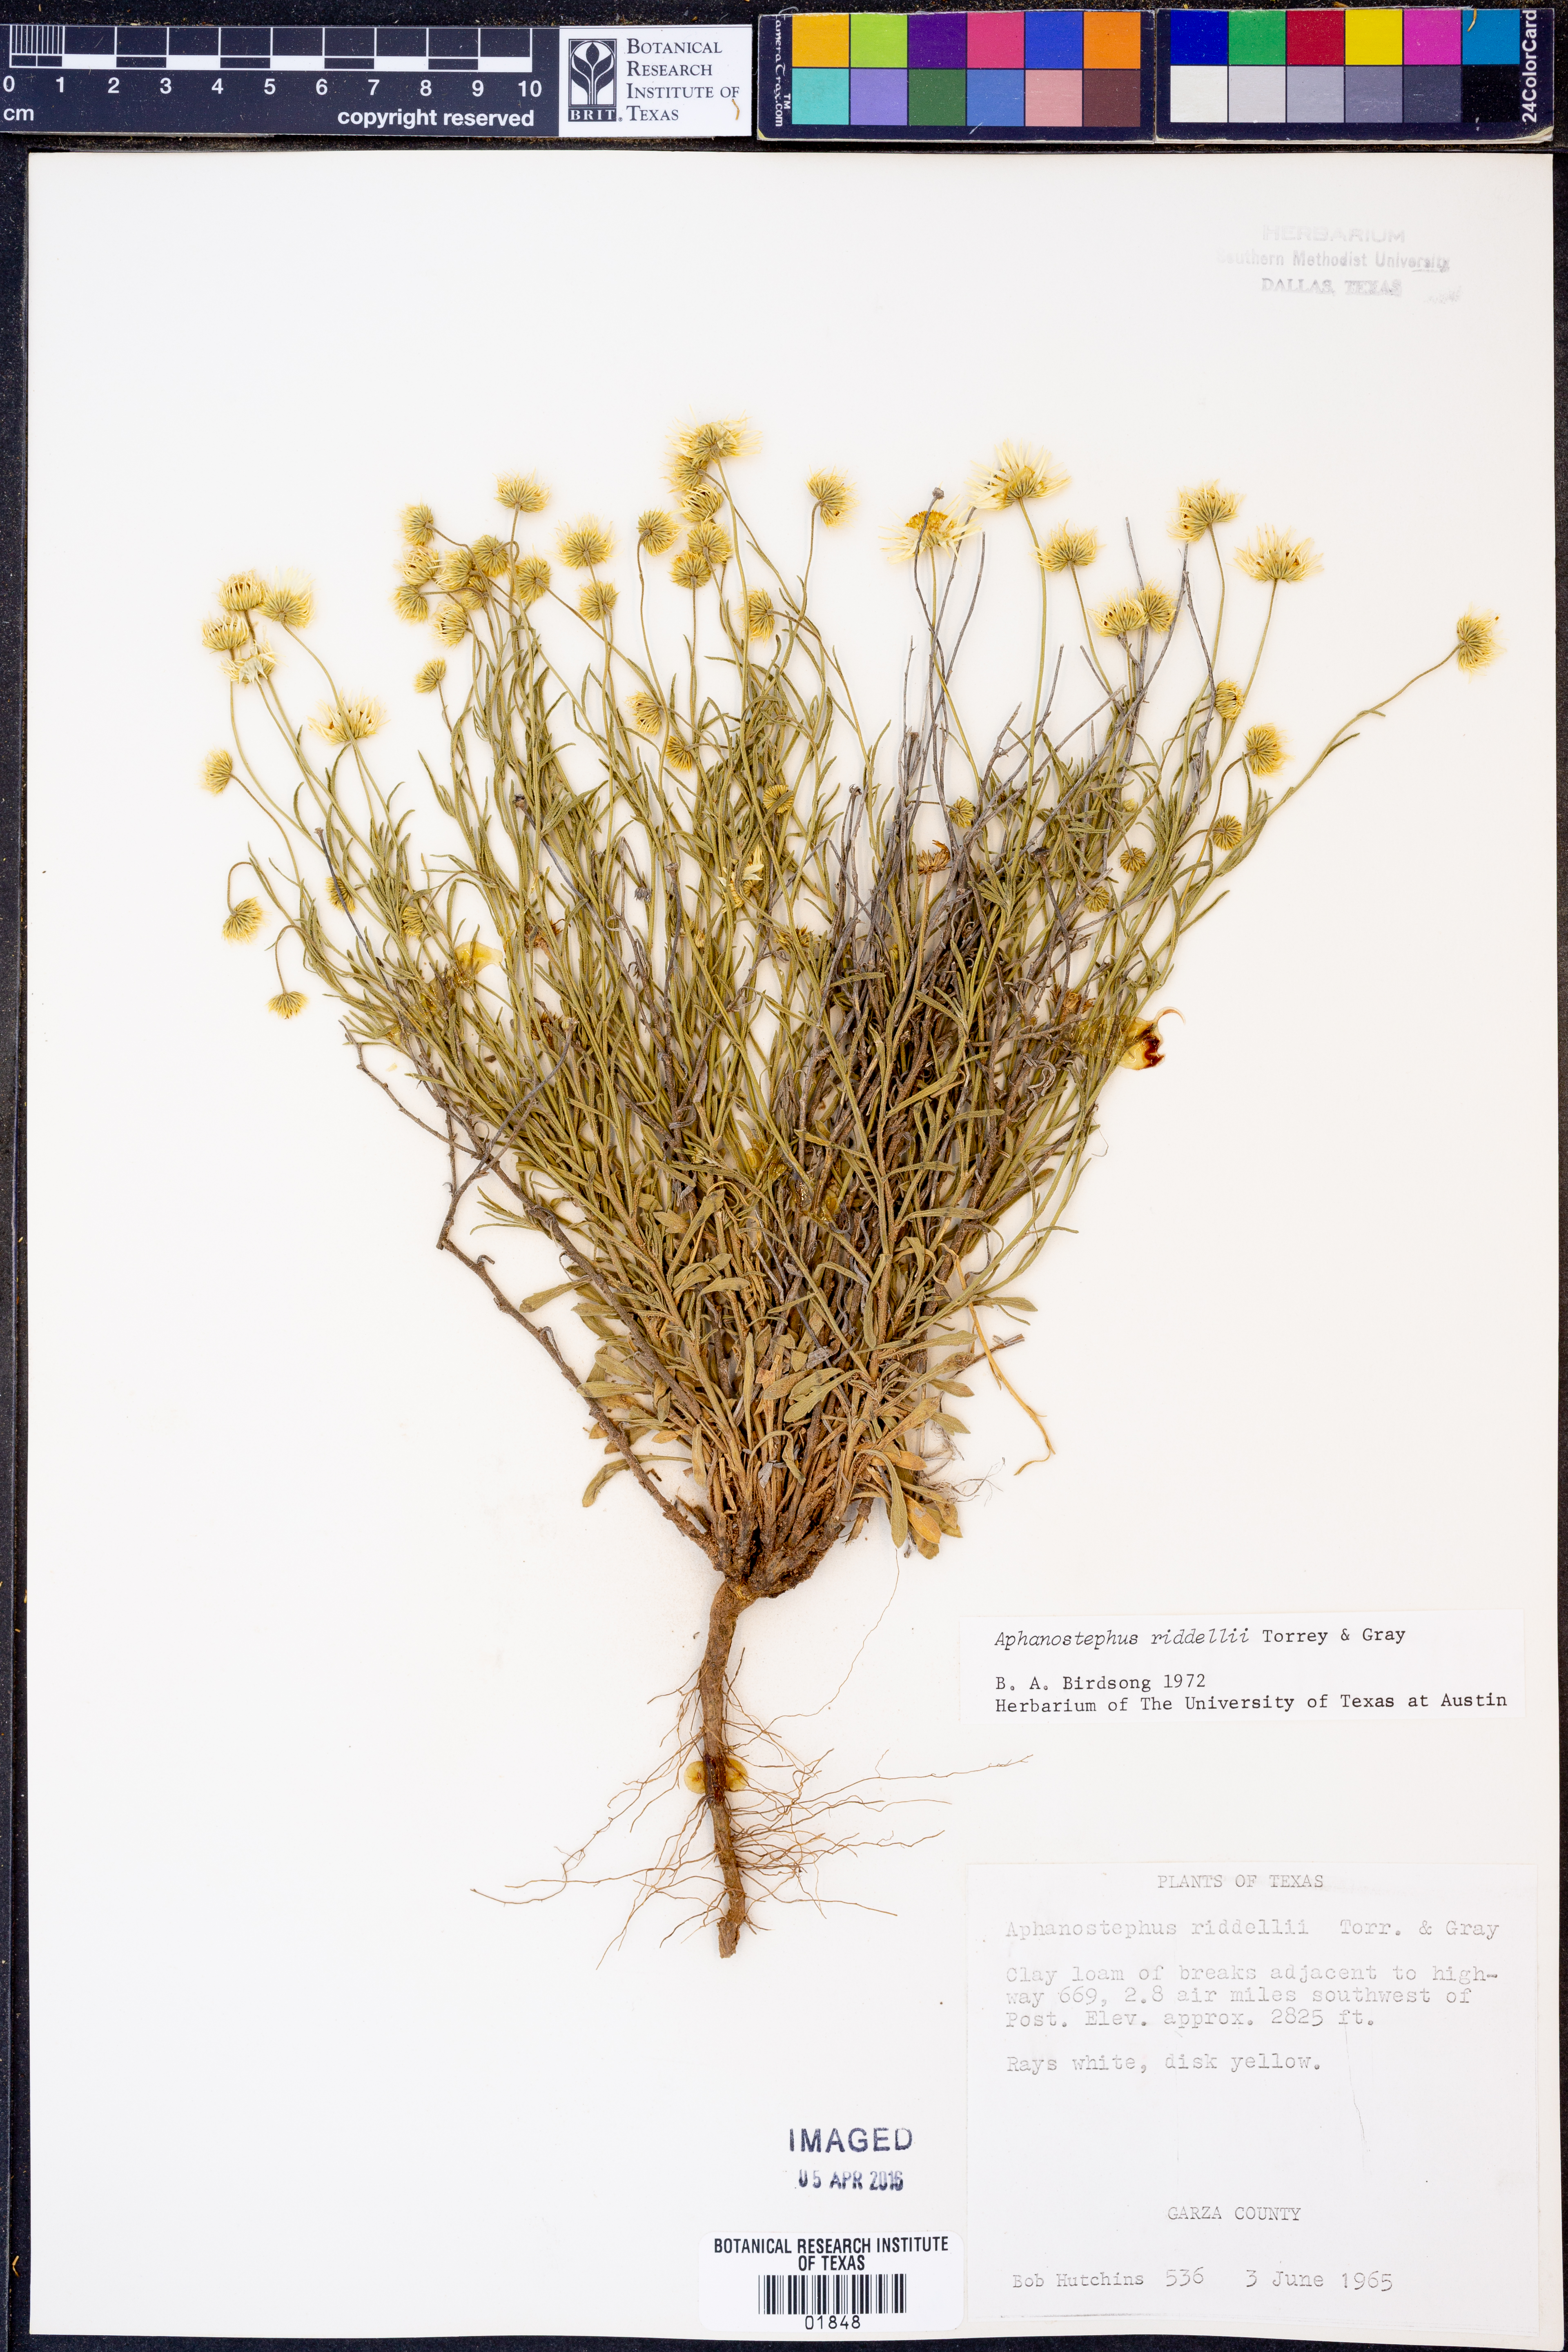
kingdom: Plantae
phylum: Tracheophyta
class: Magnoliopsida
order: Asterales
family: Asteraceae
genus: Aphanostephus
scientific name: Aphanostephus riddellii
